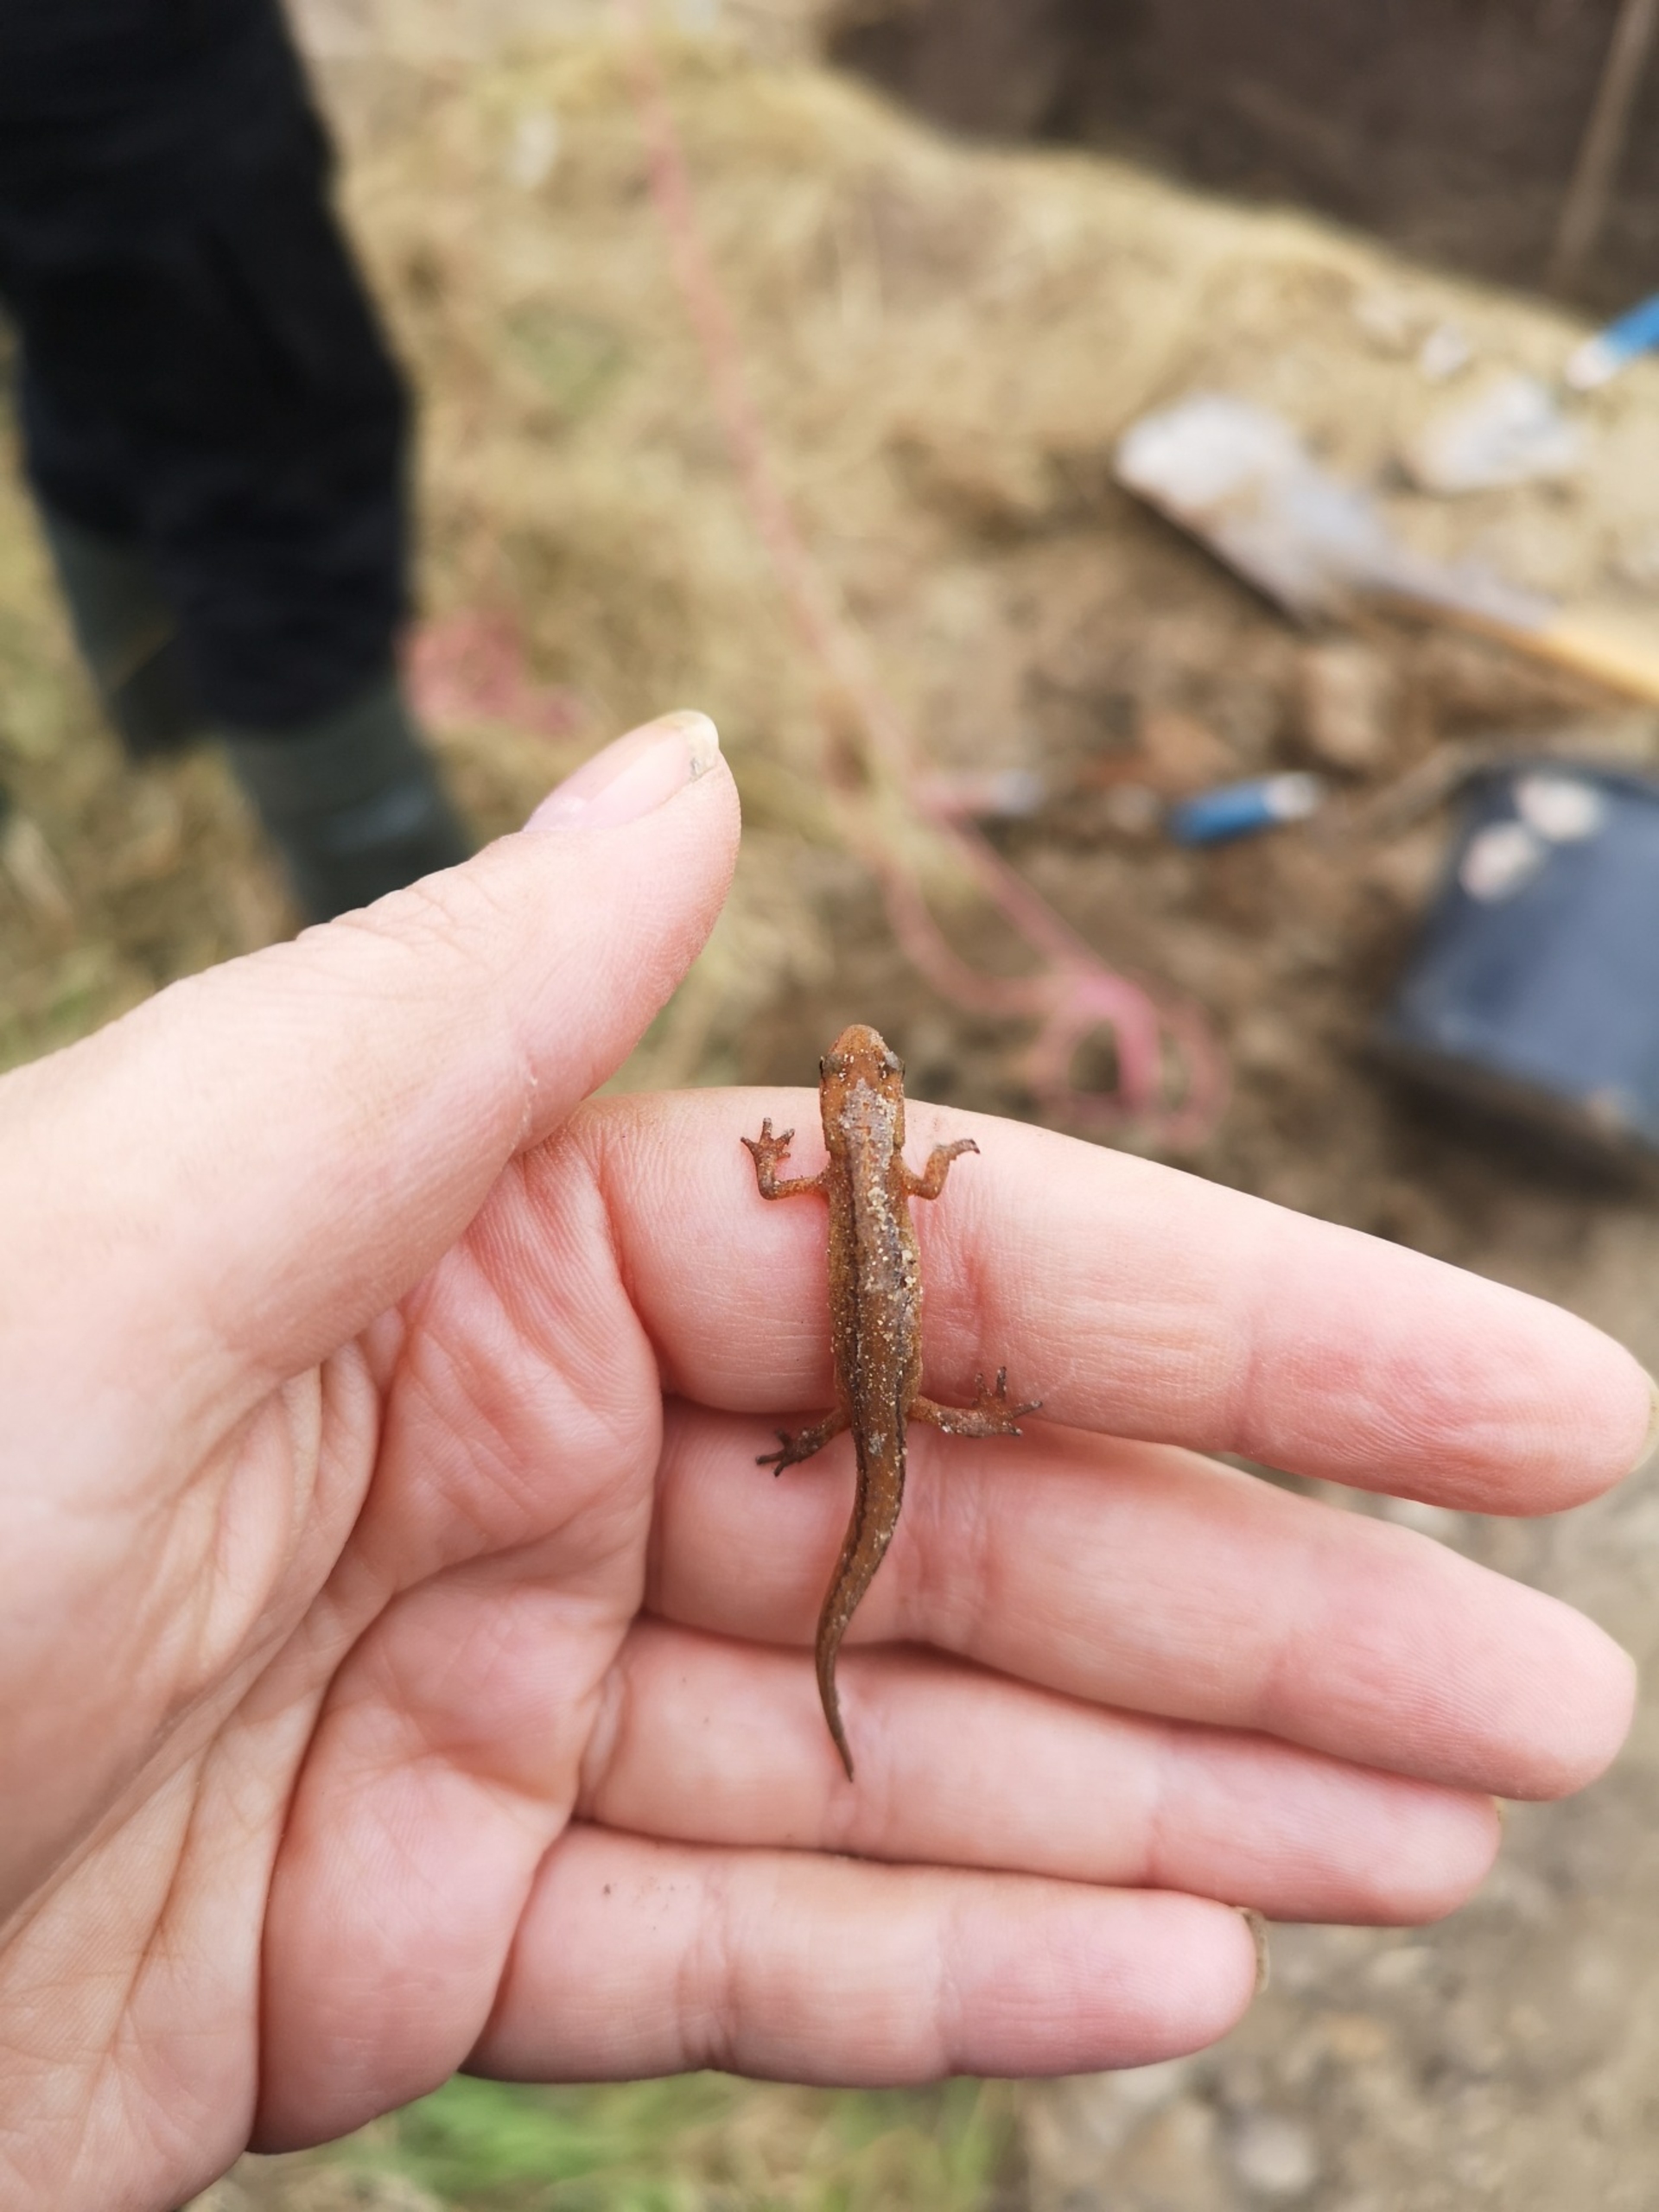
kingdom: Animalia
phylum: Chordata
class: Amphibia
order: Caudata
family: Salamandridae
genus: Lissotriton
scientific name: Lissotriton vulgaris
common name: Lille vandsalamander
